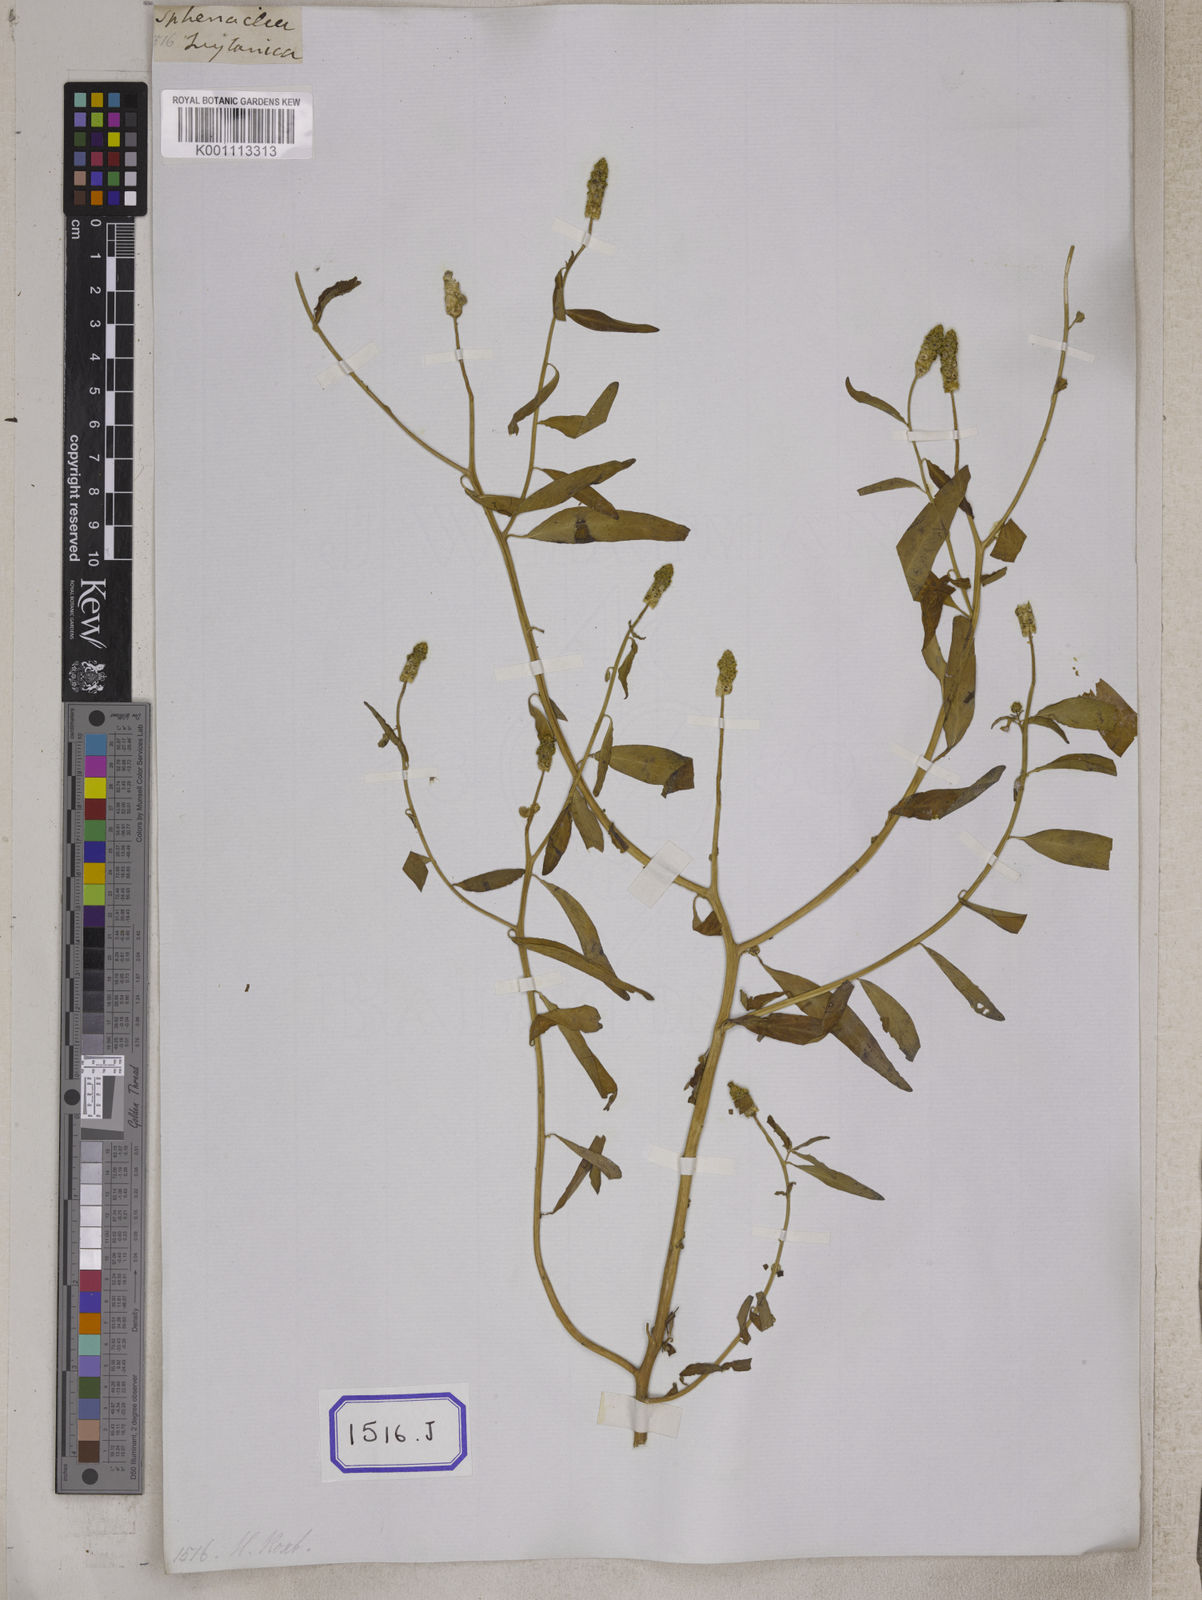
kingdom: Plantae
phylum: Tracheophyta
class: Magnoliopsida
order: Solanales
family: Sphenocleaceae
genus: Sphenoclea
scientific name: Sphenoclea
